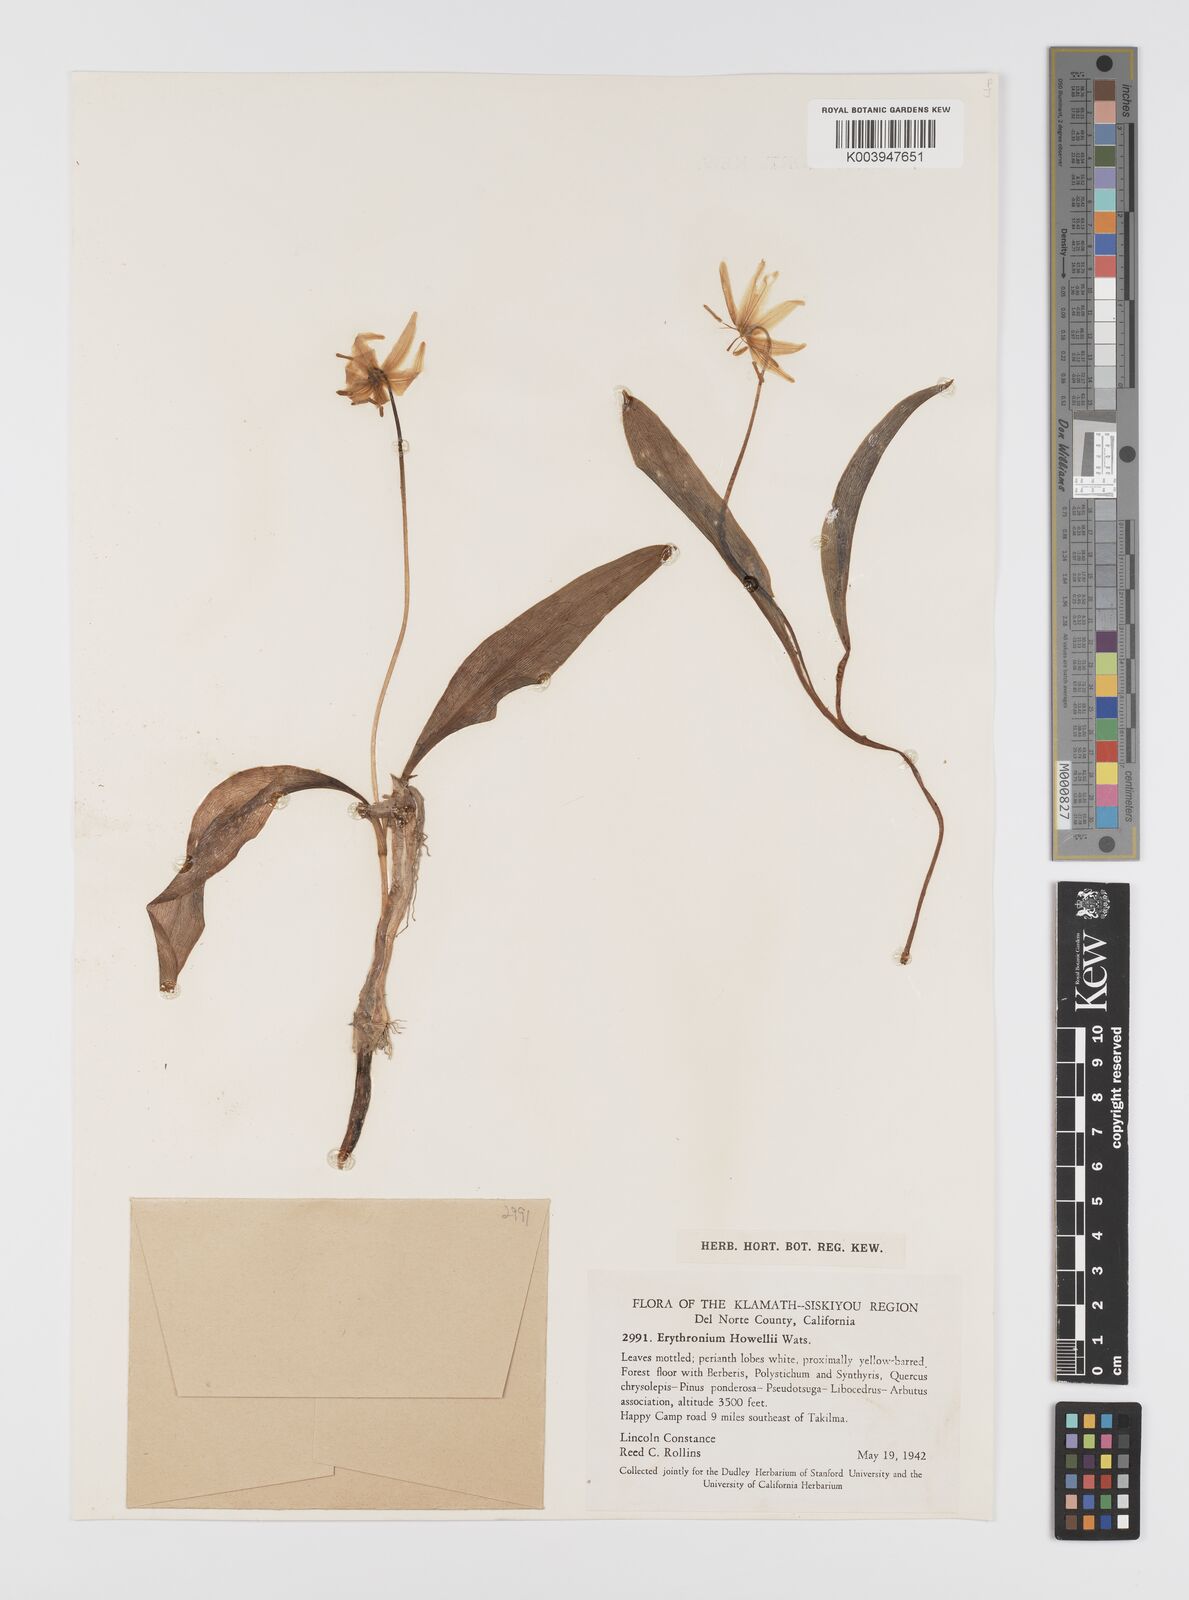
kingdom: Plantae
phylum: Tracheophyta
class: Liliopsida
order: Liliales
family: Liliaceae
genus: Erythronium
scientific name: Erythronium howellii
